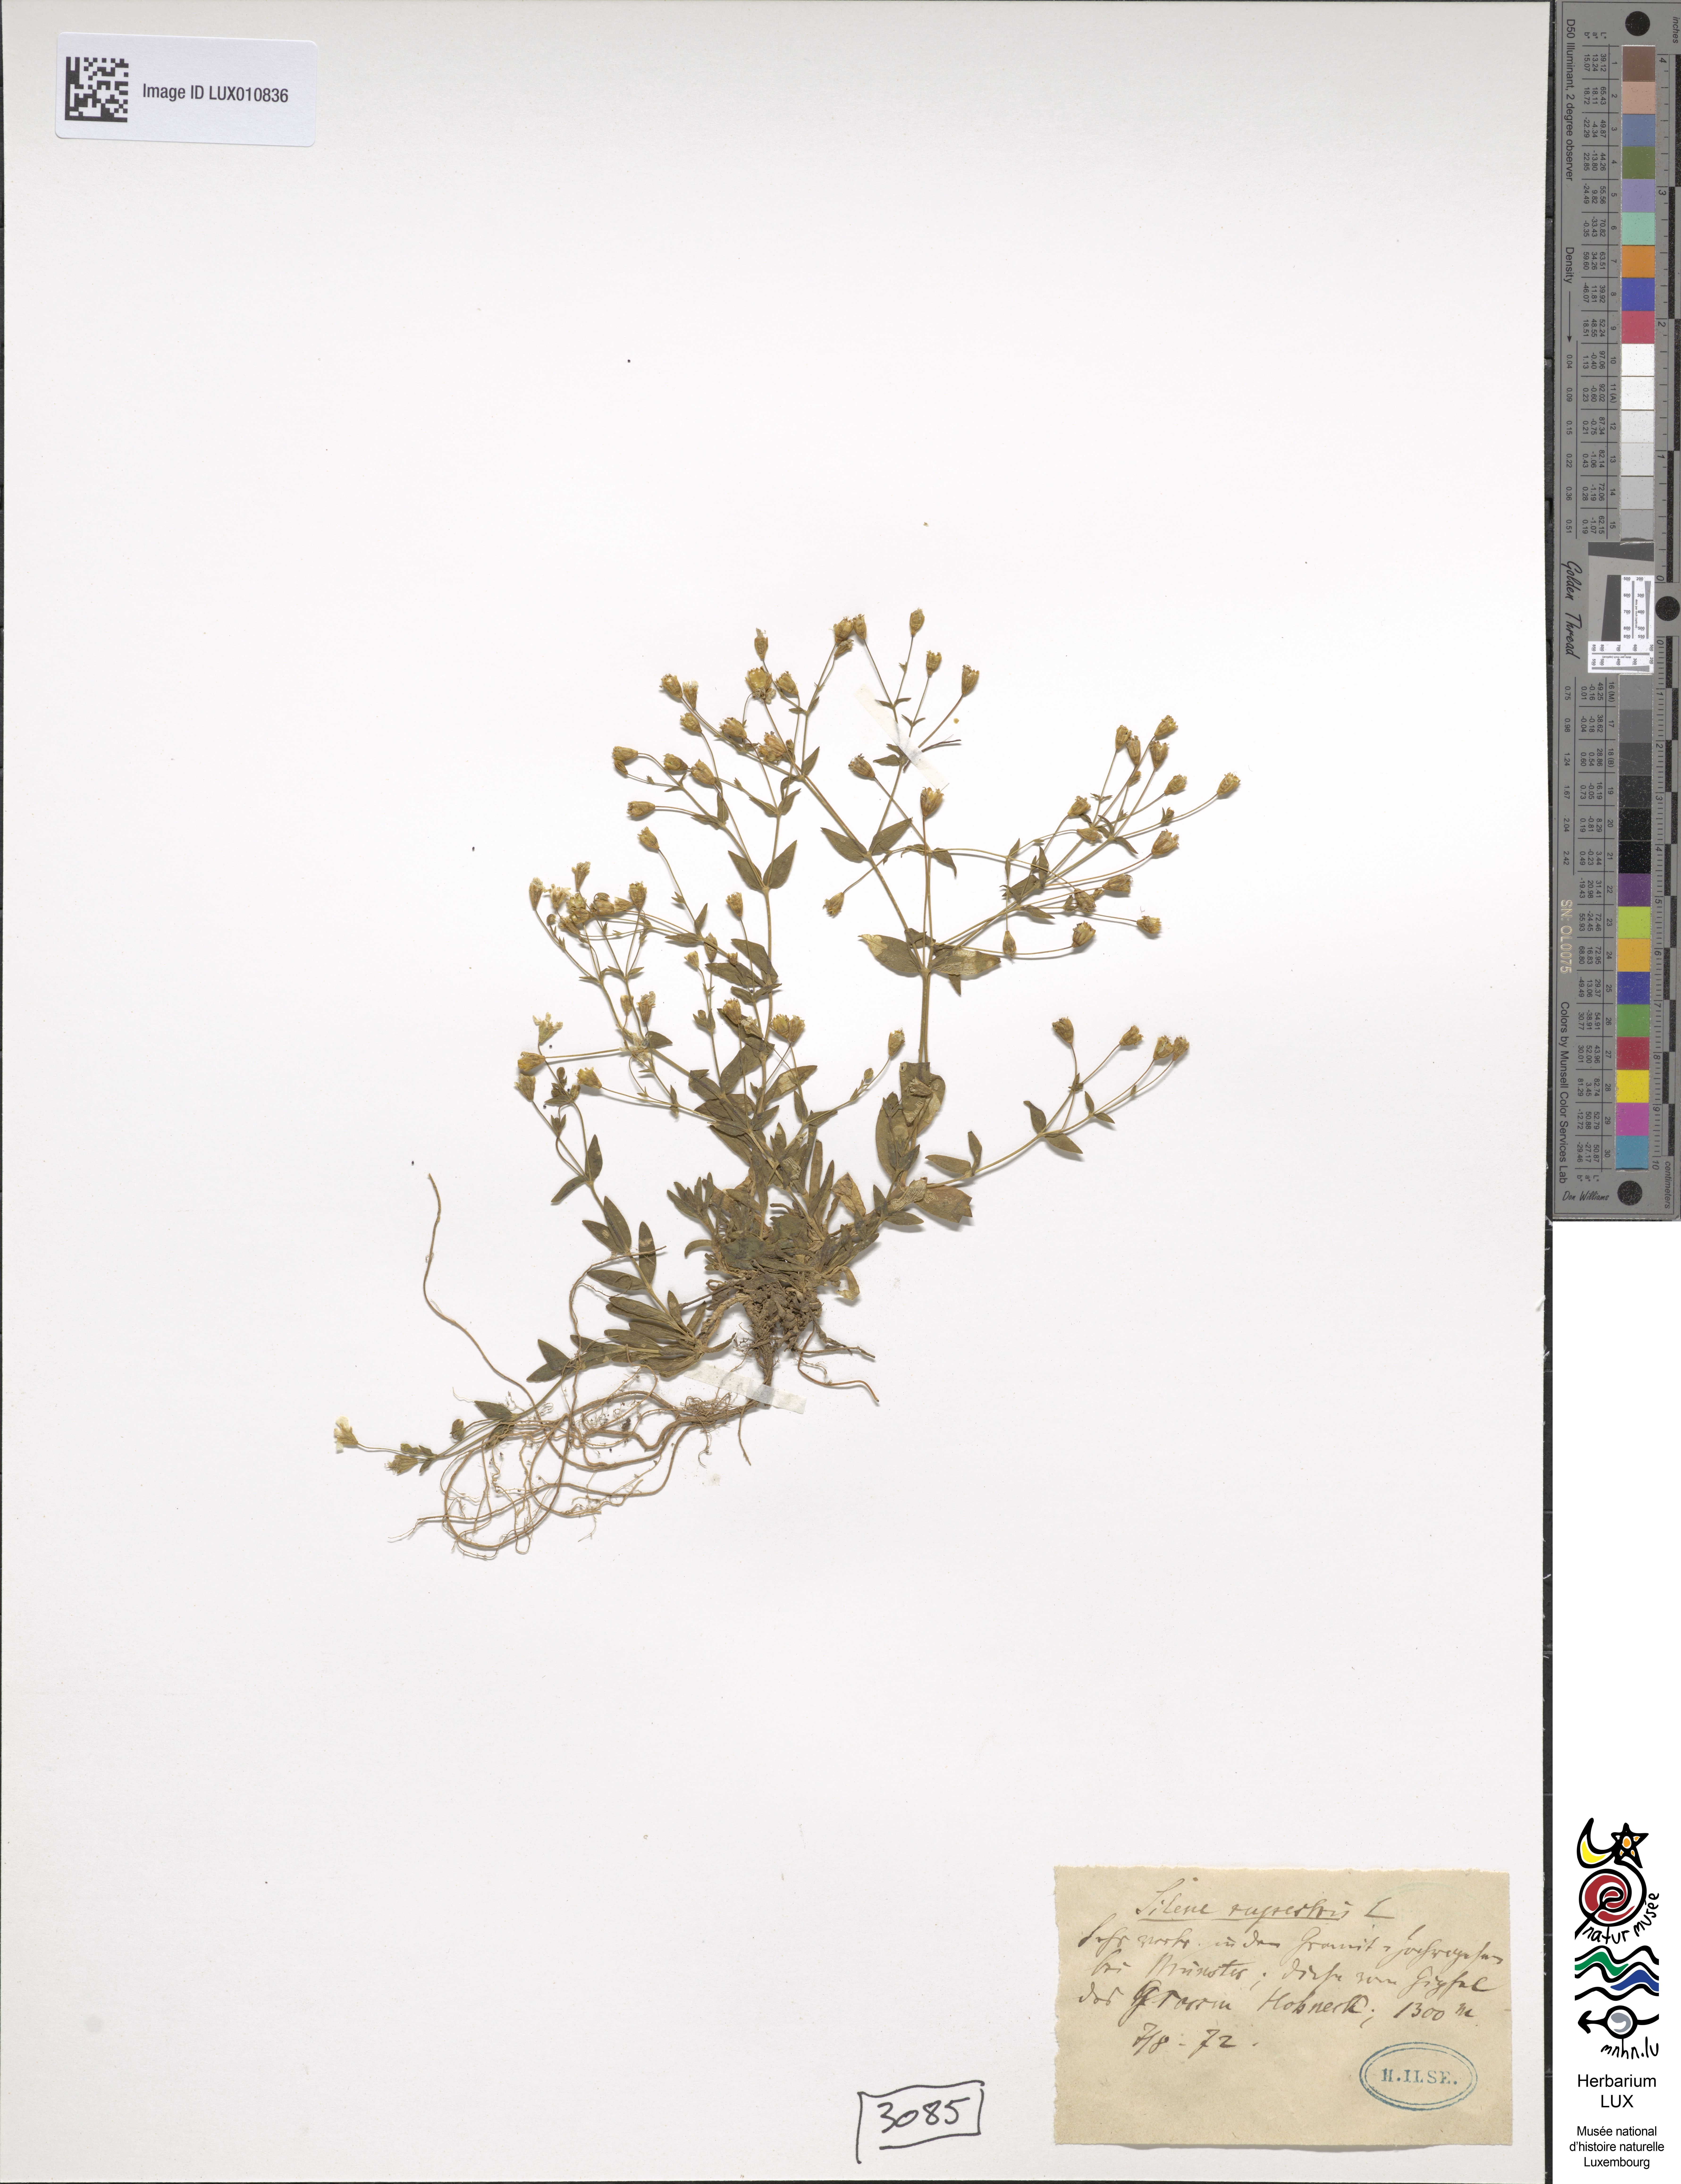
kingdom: Plantae
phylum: Tracheophyta
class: Magnoliopsida
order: Caryophyllales
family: Caryophyllaceae
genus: Atocion
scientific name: Atocion rupestre
